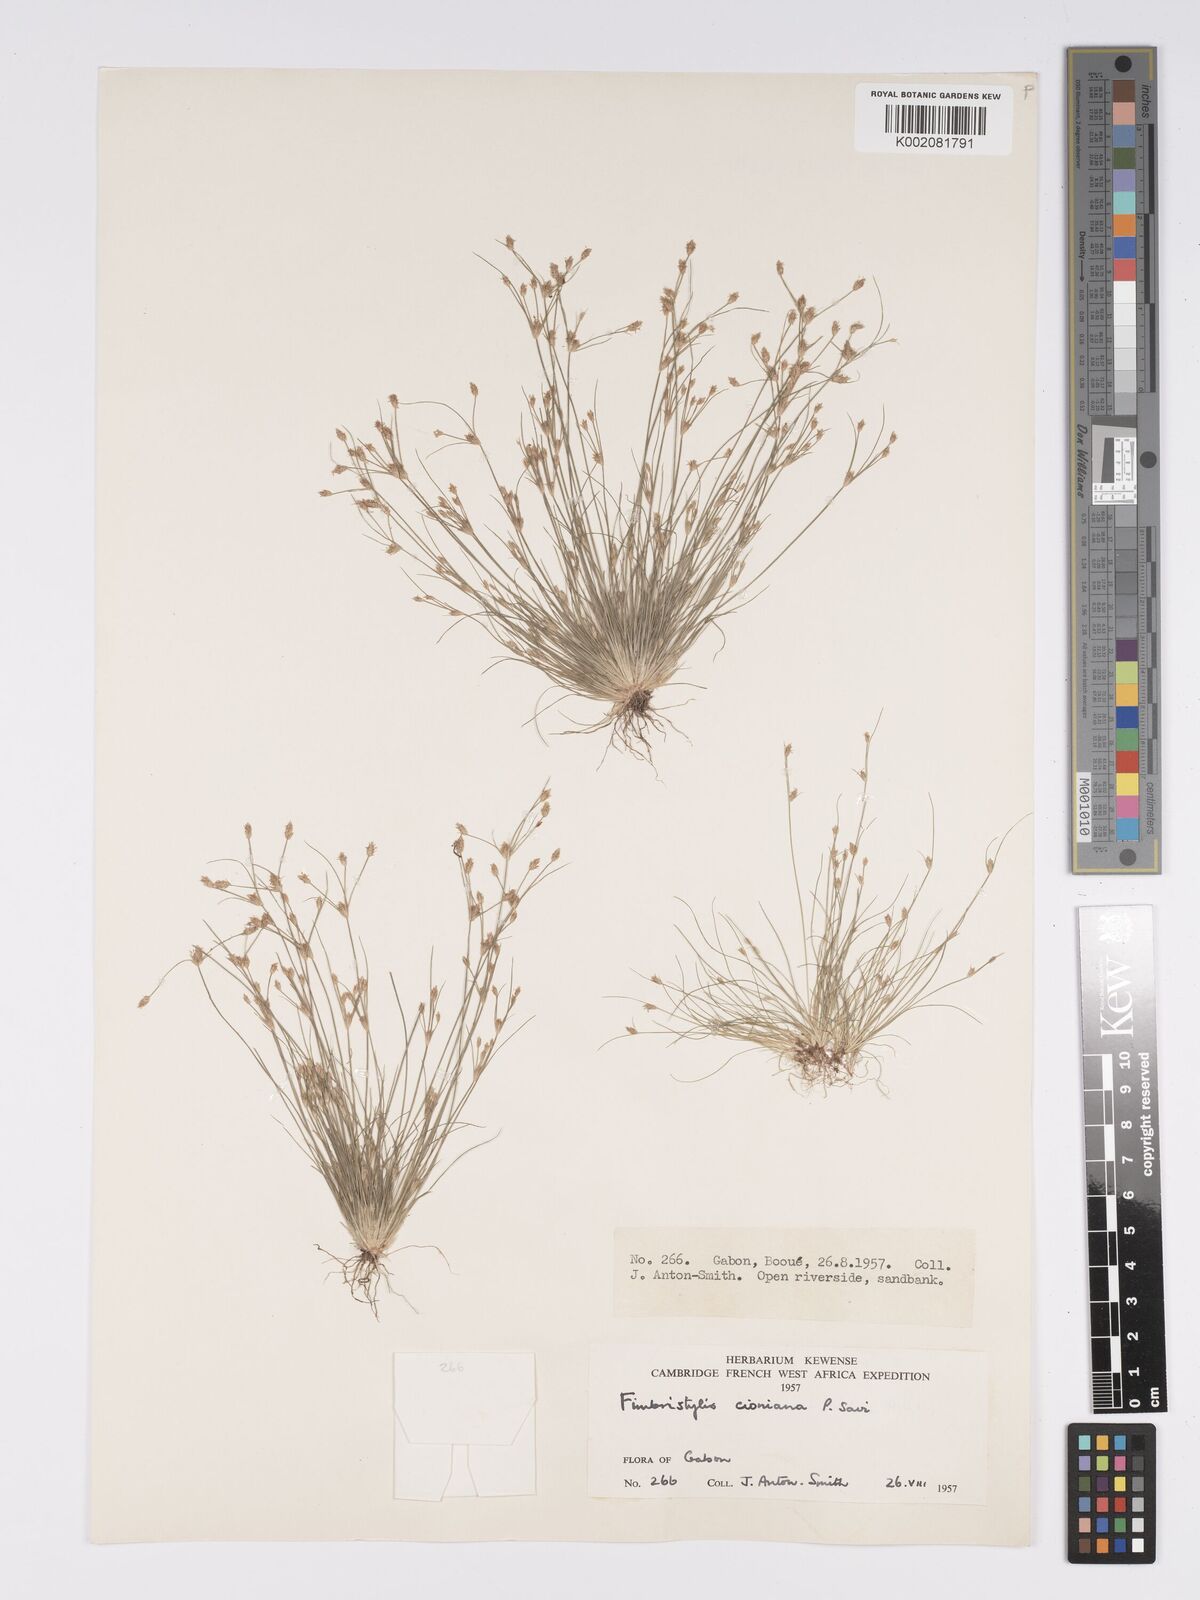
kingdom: Plantae
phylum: Tracheophyta
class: Liliopsida
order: Poales
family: Cyperaceae
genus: Bulbostylis
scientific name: Bulbostylis cioniana
